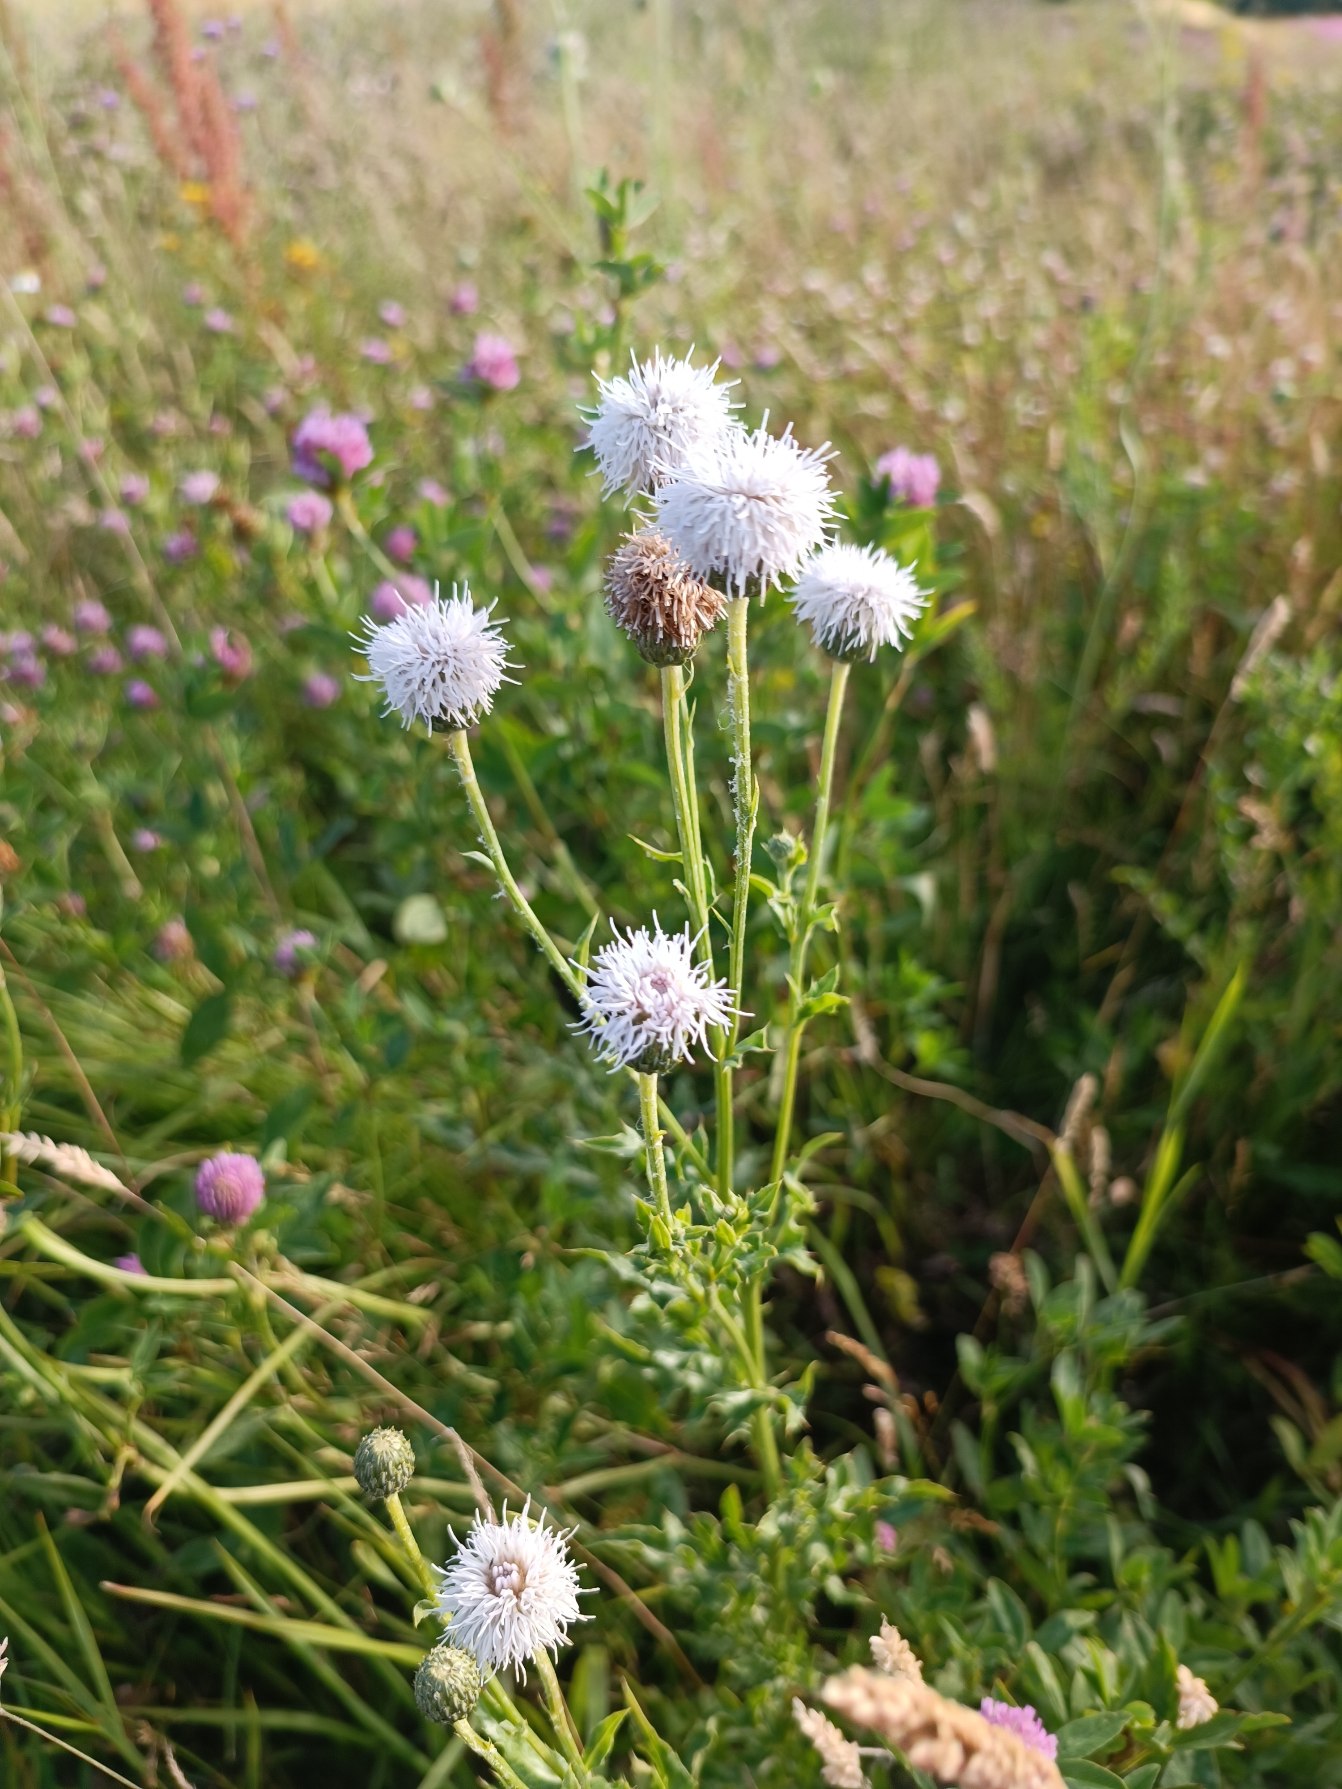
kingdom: Plantae
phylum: Tracheophyta
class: Magnoliopsida
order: Asterales
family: Asteraceae
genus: Cirsium
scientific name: Cirsium arvense
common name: Ager-tidsel
